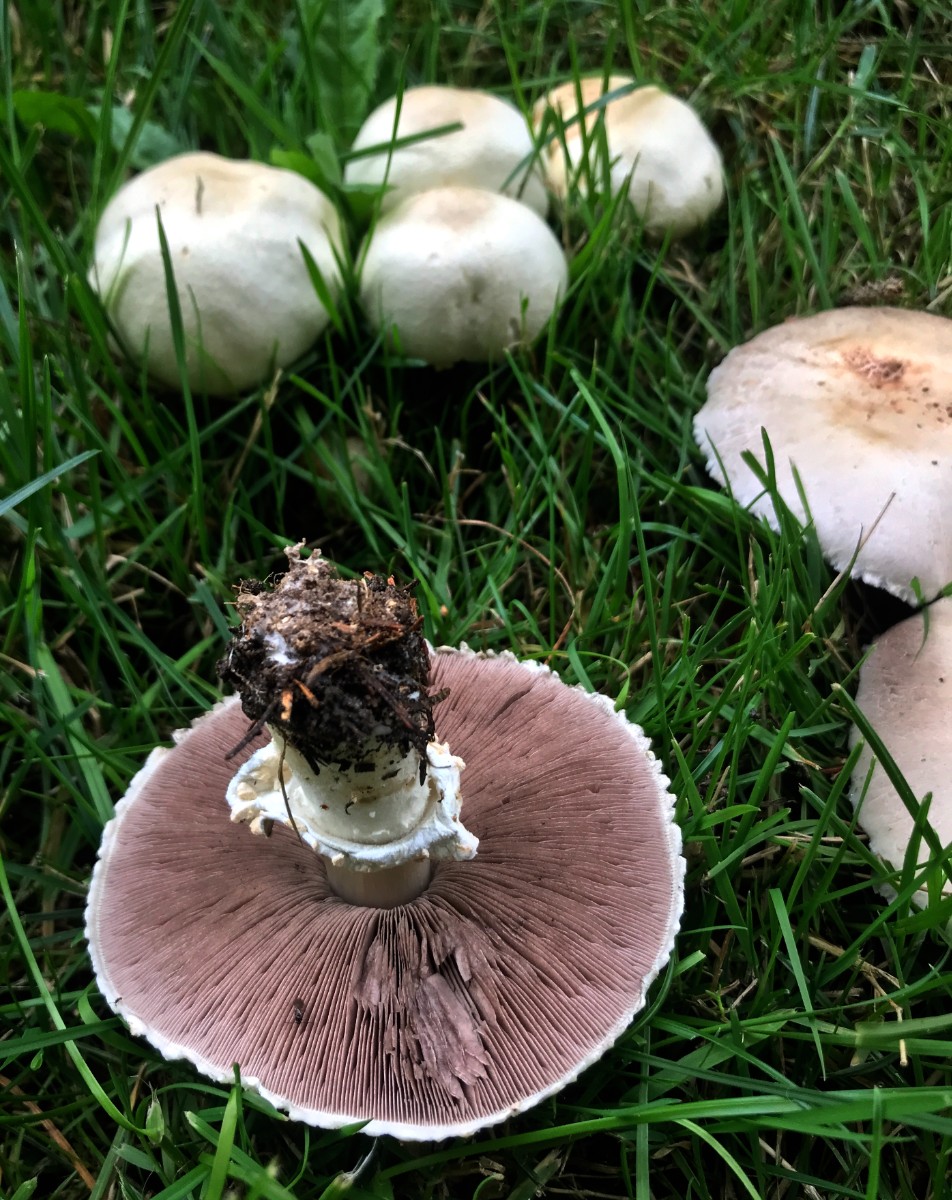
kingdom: Fungi
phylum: Basidiomycota
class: Agaricomycetes
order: Agaricales
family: Agaricaceae
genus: Agaricus
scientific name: Agaricus arvensis
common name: ager-champignon
